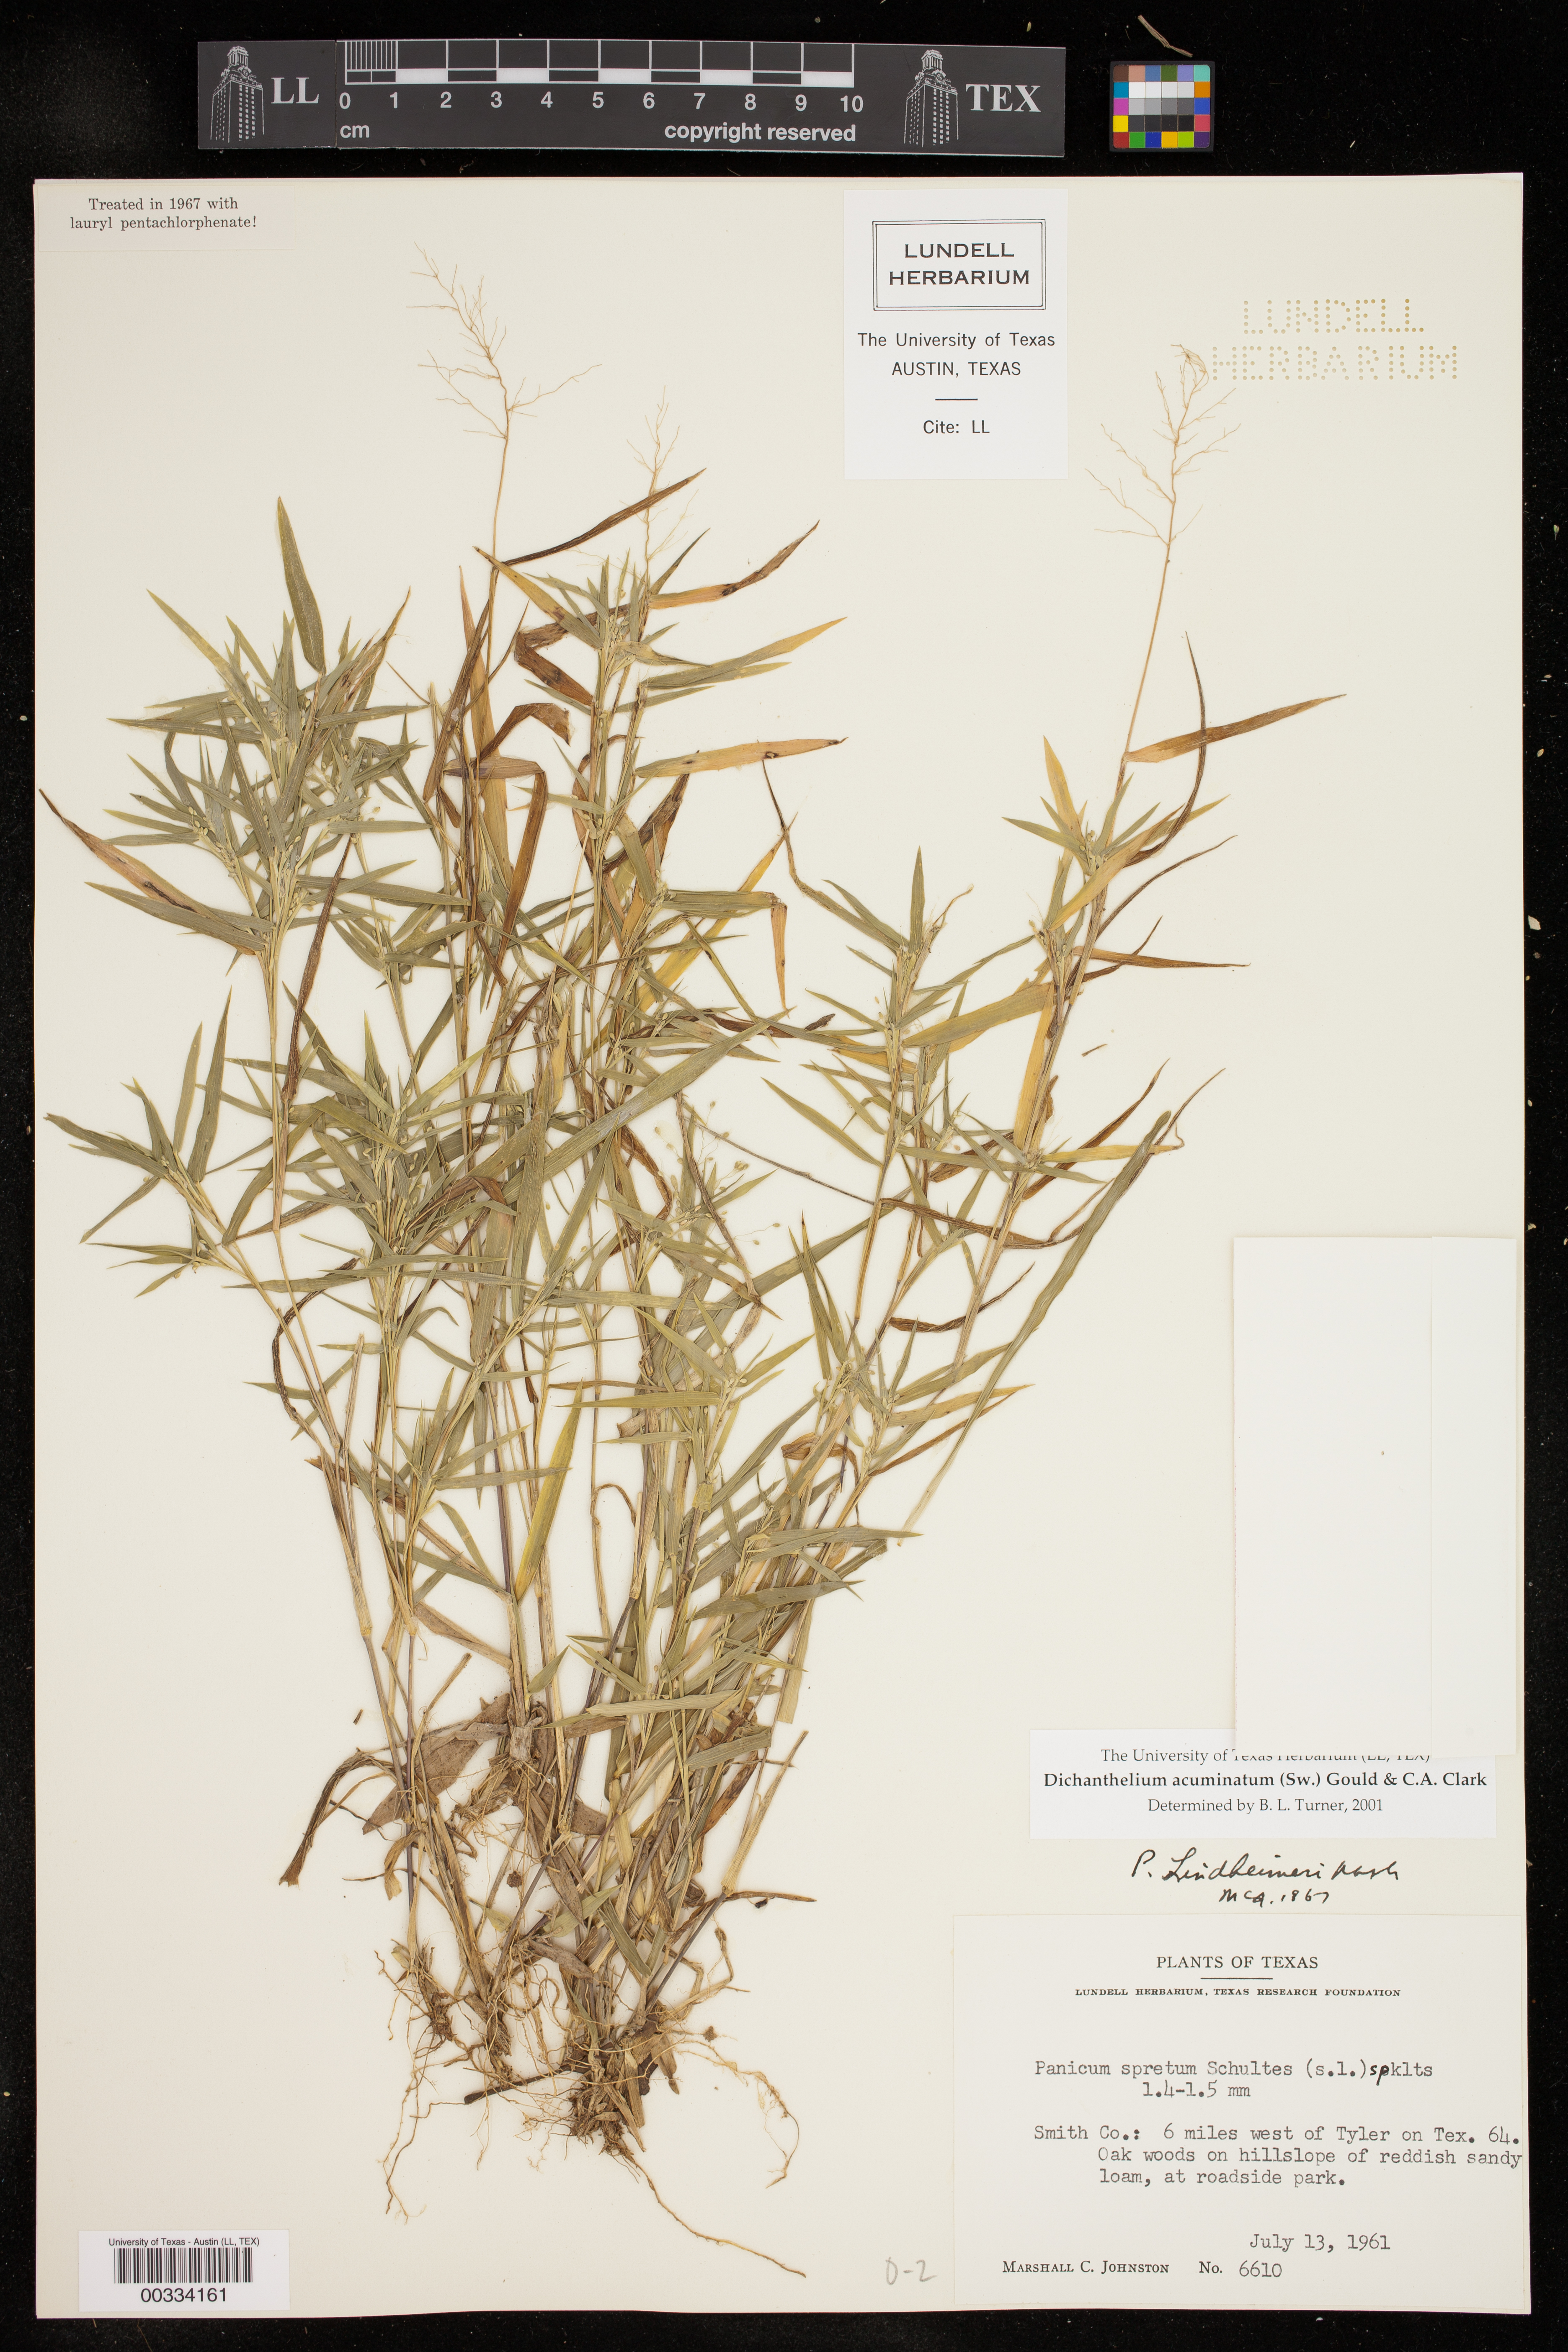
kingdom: Plantae
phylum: Tracheophyta
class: Liliopsida
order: Poales
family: Poaceae
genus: Dichanthelium
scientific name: Dichanthelium acuminatum
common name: Hairy panic grass
